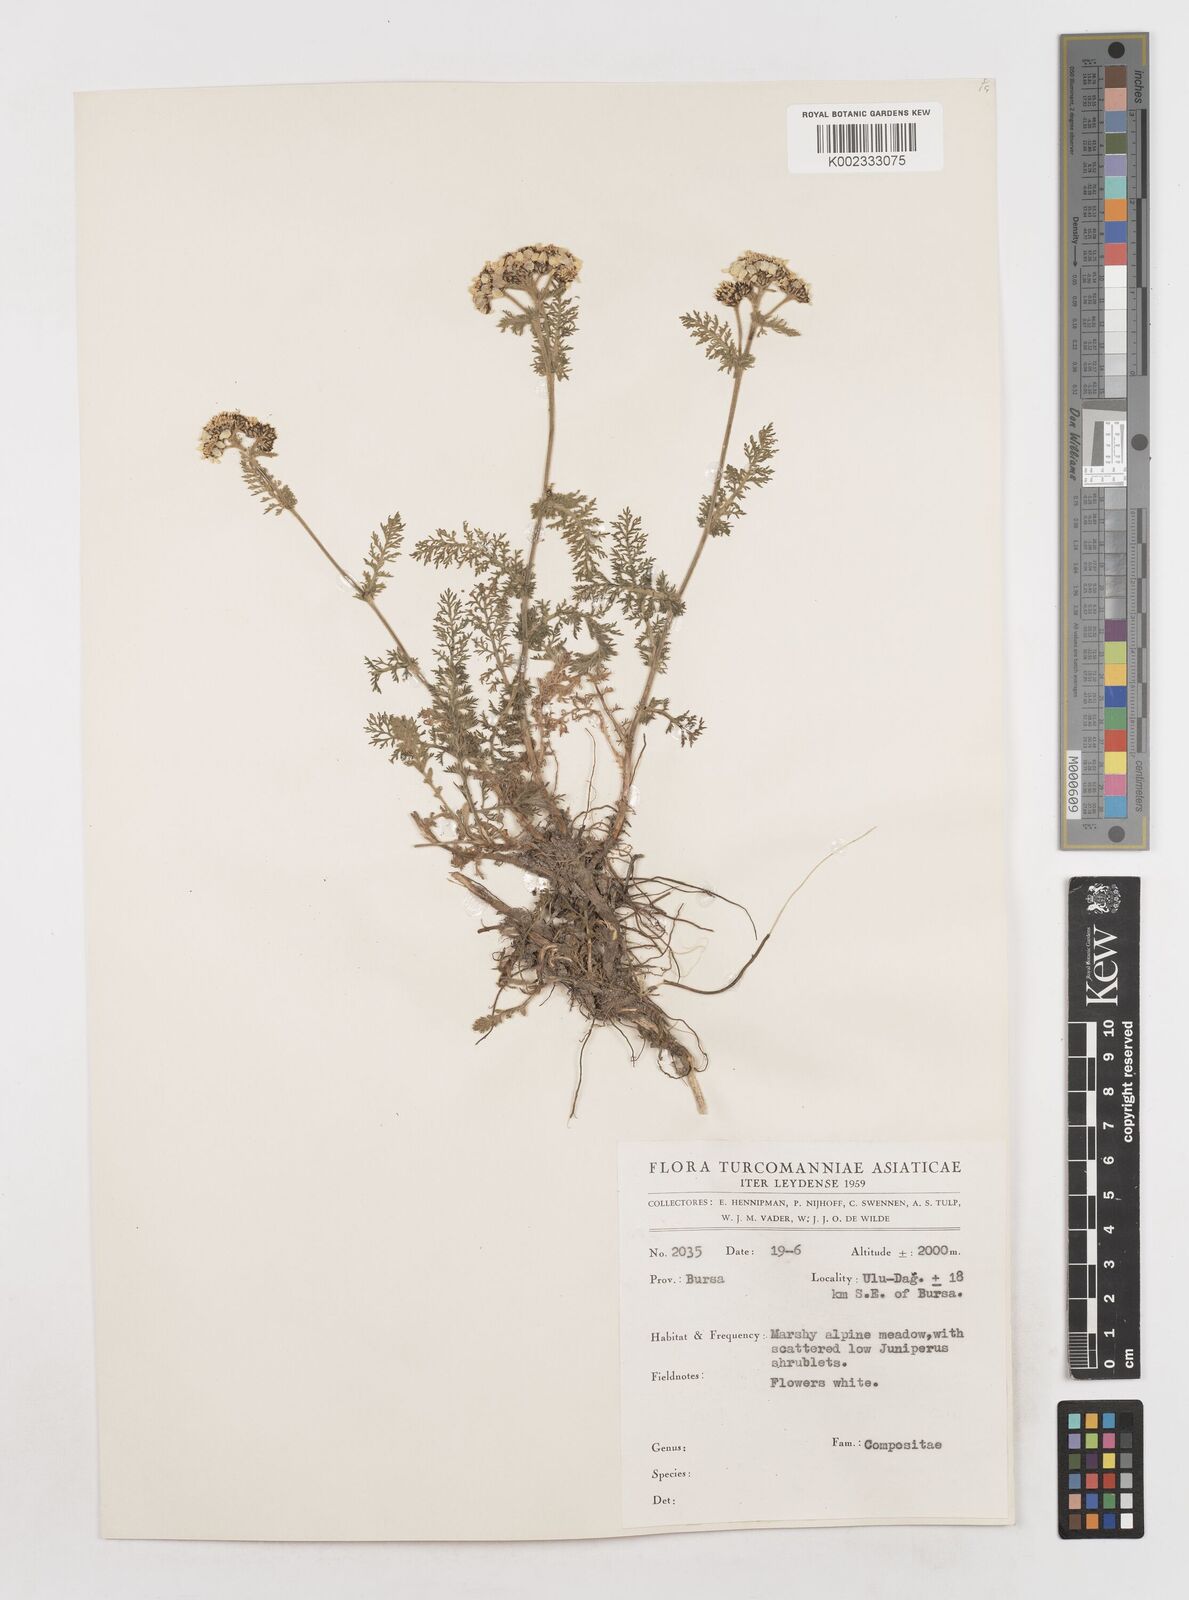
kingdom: Plantae
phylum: Tracheophyta
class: Magnoliopsida
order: Asterales
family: Asteraceae
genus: Achillea
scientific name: Achillea
